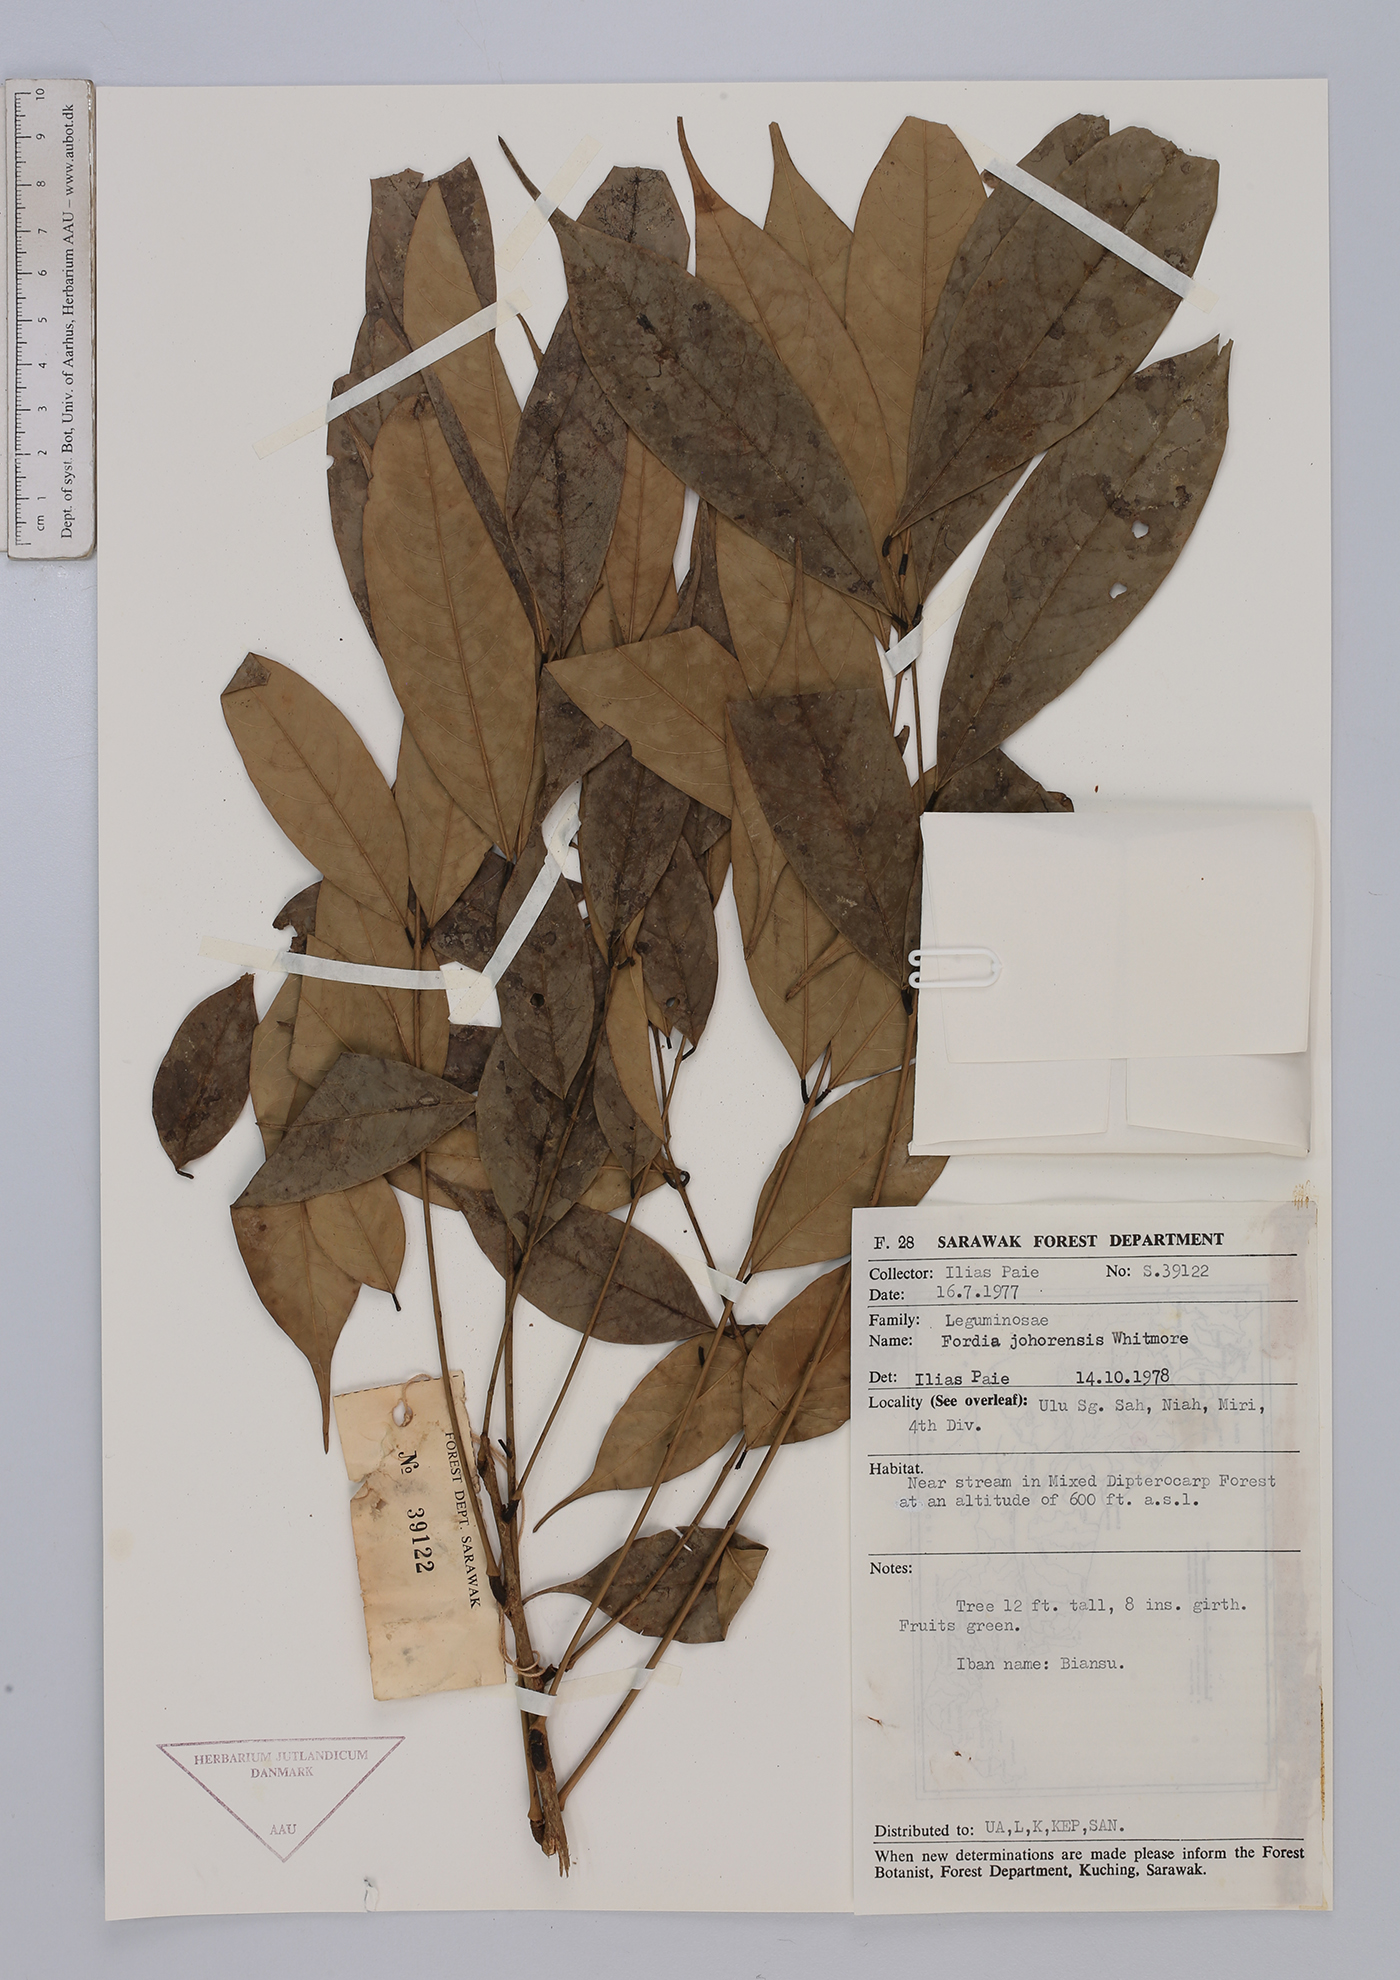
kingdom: Plantae
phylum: Tracheophyta
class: Magnoliopsida
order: Fabales
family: Fabaceae
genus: Fordia
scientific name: Fordia johorensis
